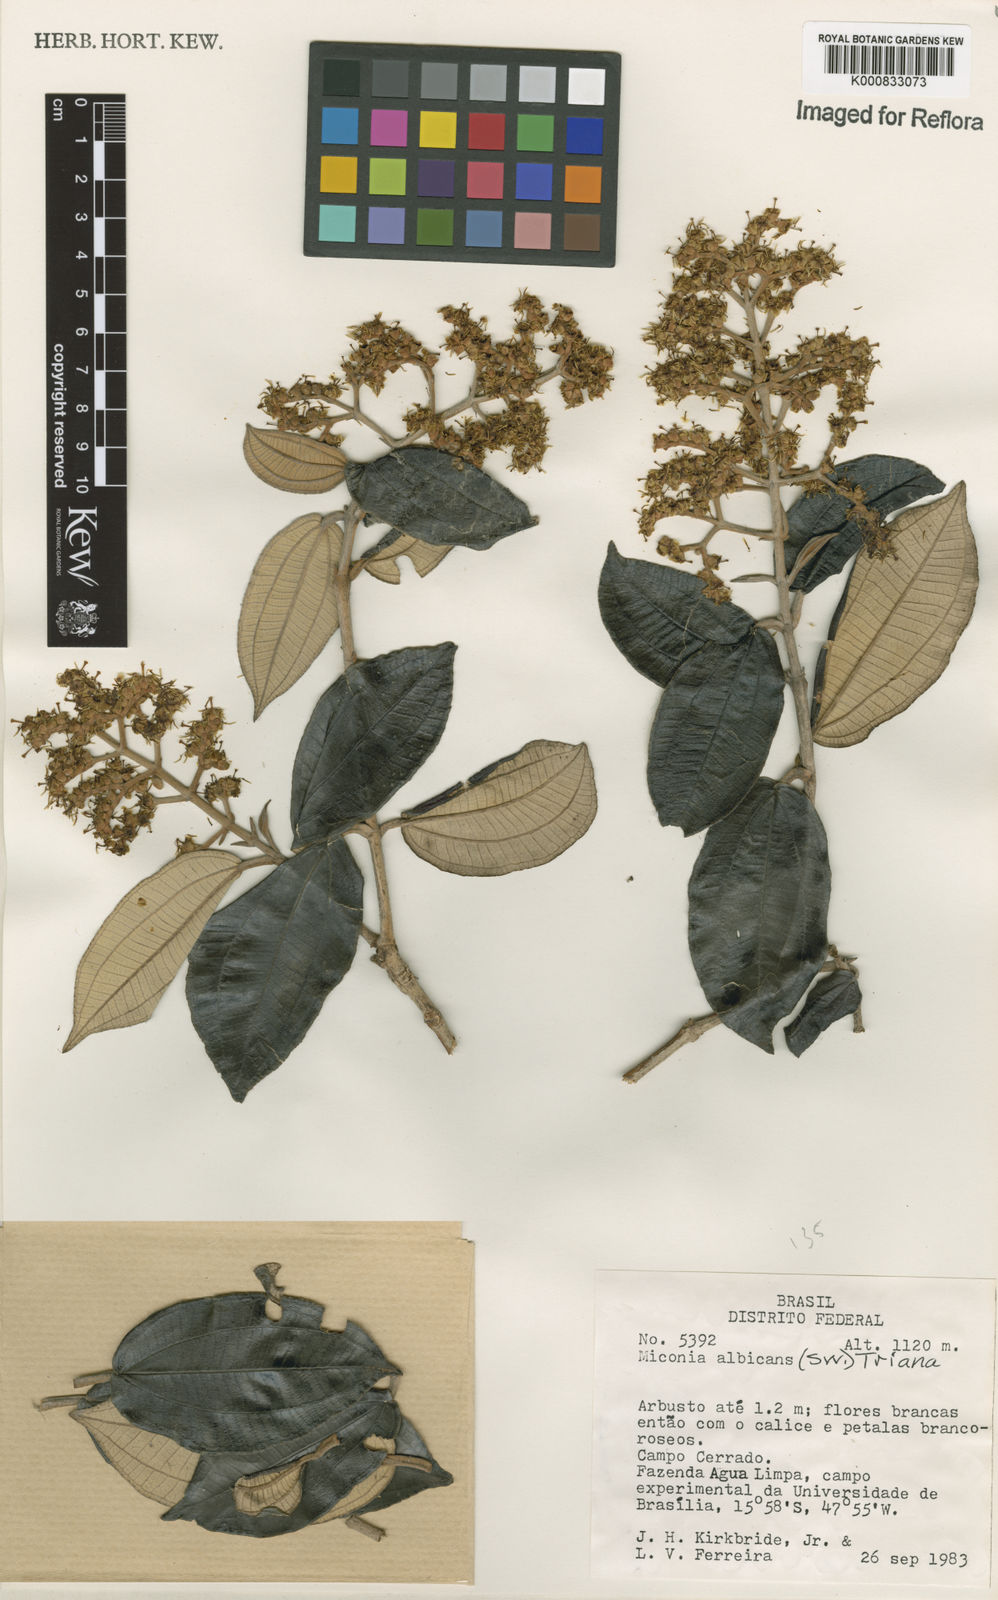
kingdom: Plantae
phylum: Tracheophyta
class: Magnoliopsida
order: Myrtales
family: Melastomataceae
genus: Miconia
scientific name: Miconia albicans
